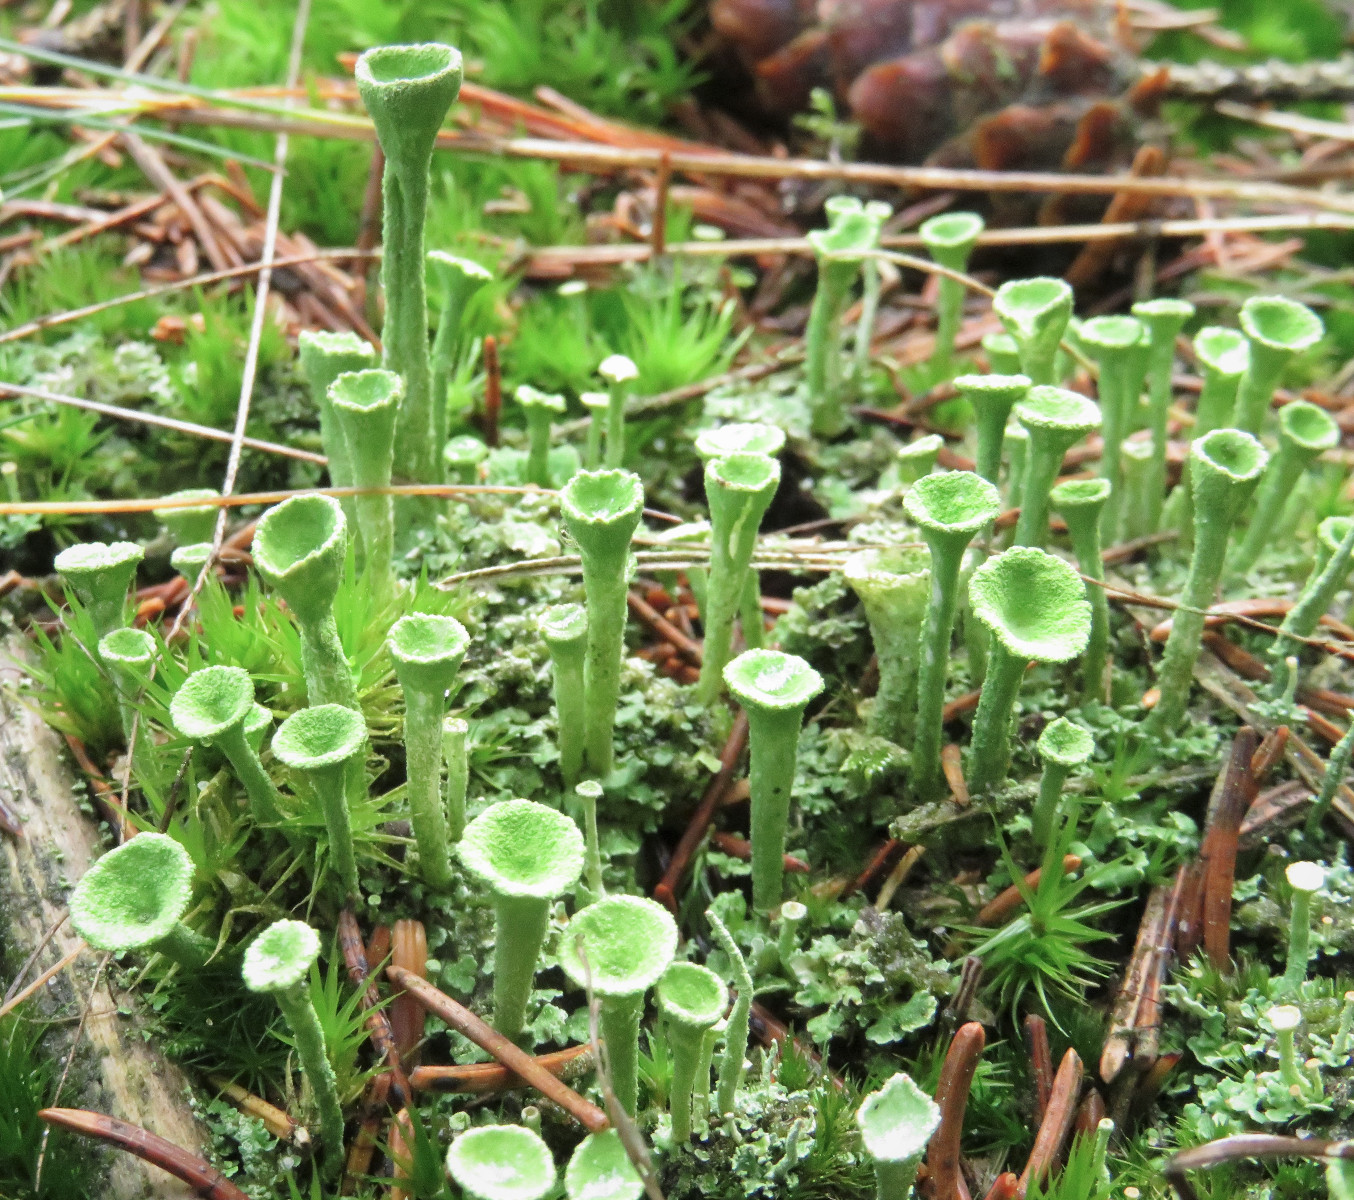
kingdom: Fungi
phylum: Ascomycota
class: Lecanoromycetes
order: Lecanorales
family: Cladoniaceae
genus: Cladonia
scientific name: Cladonia fimbriata
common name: bleggrøn bægerlav
